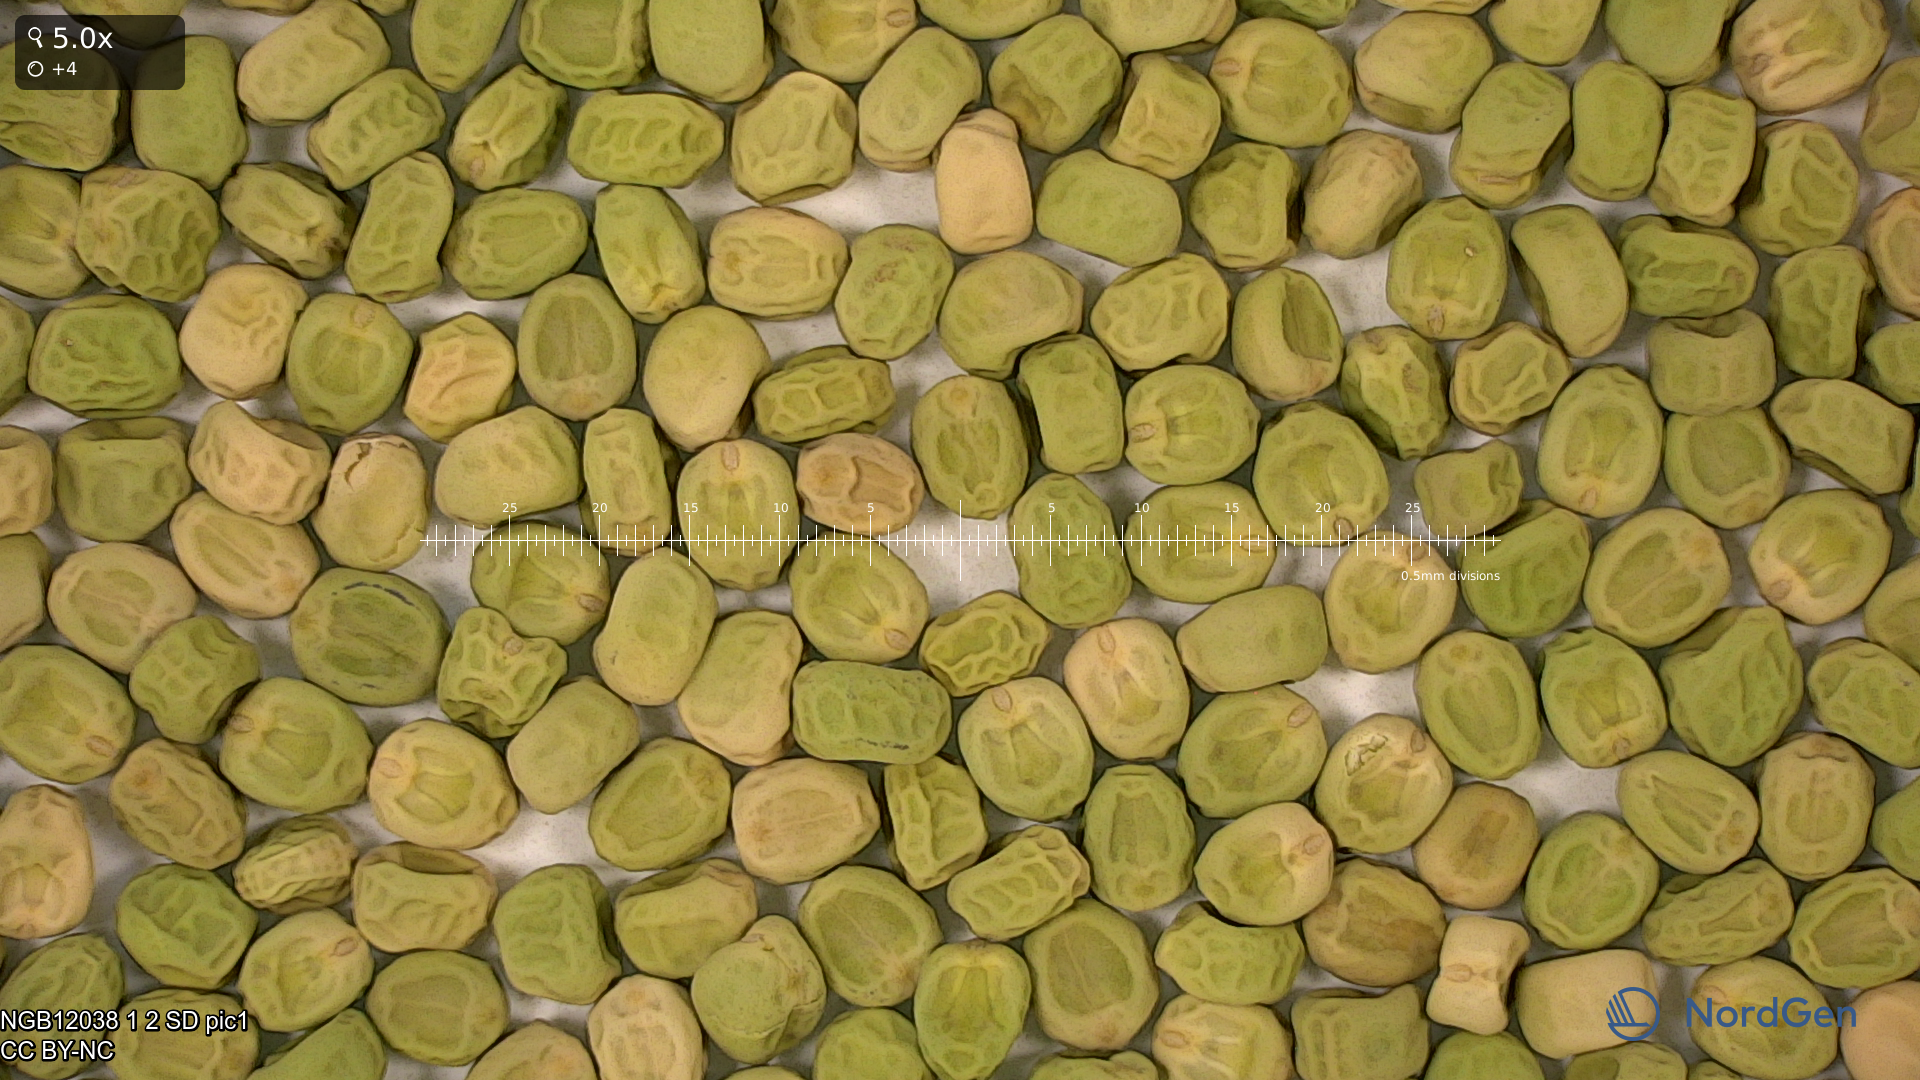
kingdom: Plantae
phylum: Tracheophyta
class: Magnoliopsida
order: Fabales
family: Fabaceae
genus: Lathyrus
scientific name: Lathyrus oleraceus
